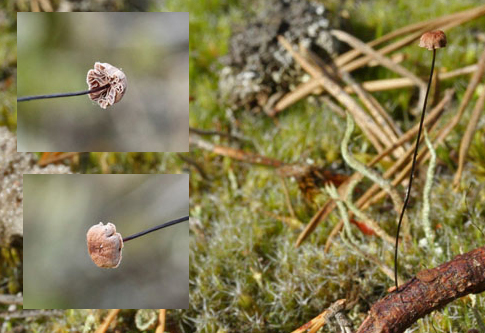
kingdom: Fungi
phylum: Basidiomycota
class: Agaricomycetes
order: Agaricales
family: Omphalotaceae
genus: Gymnopus
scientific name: Gymnopus androsaceus
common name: trådstokket fladhat
